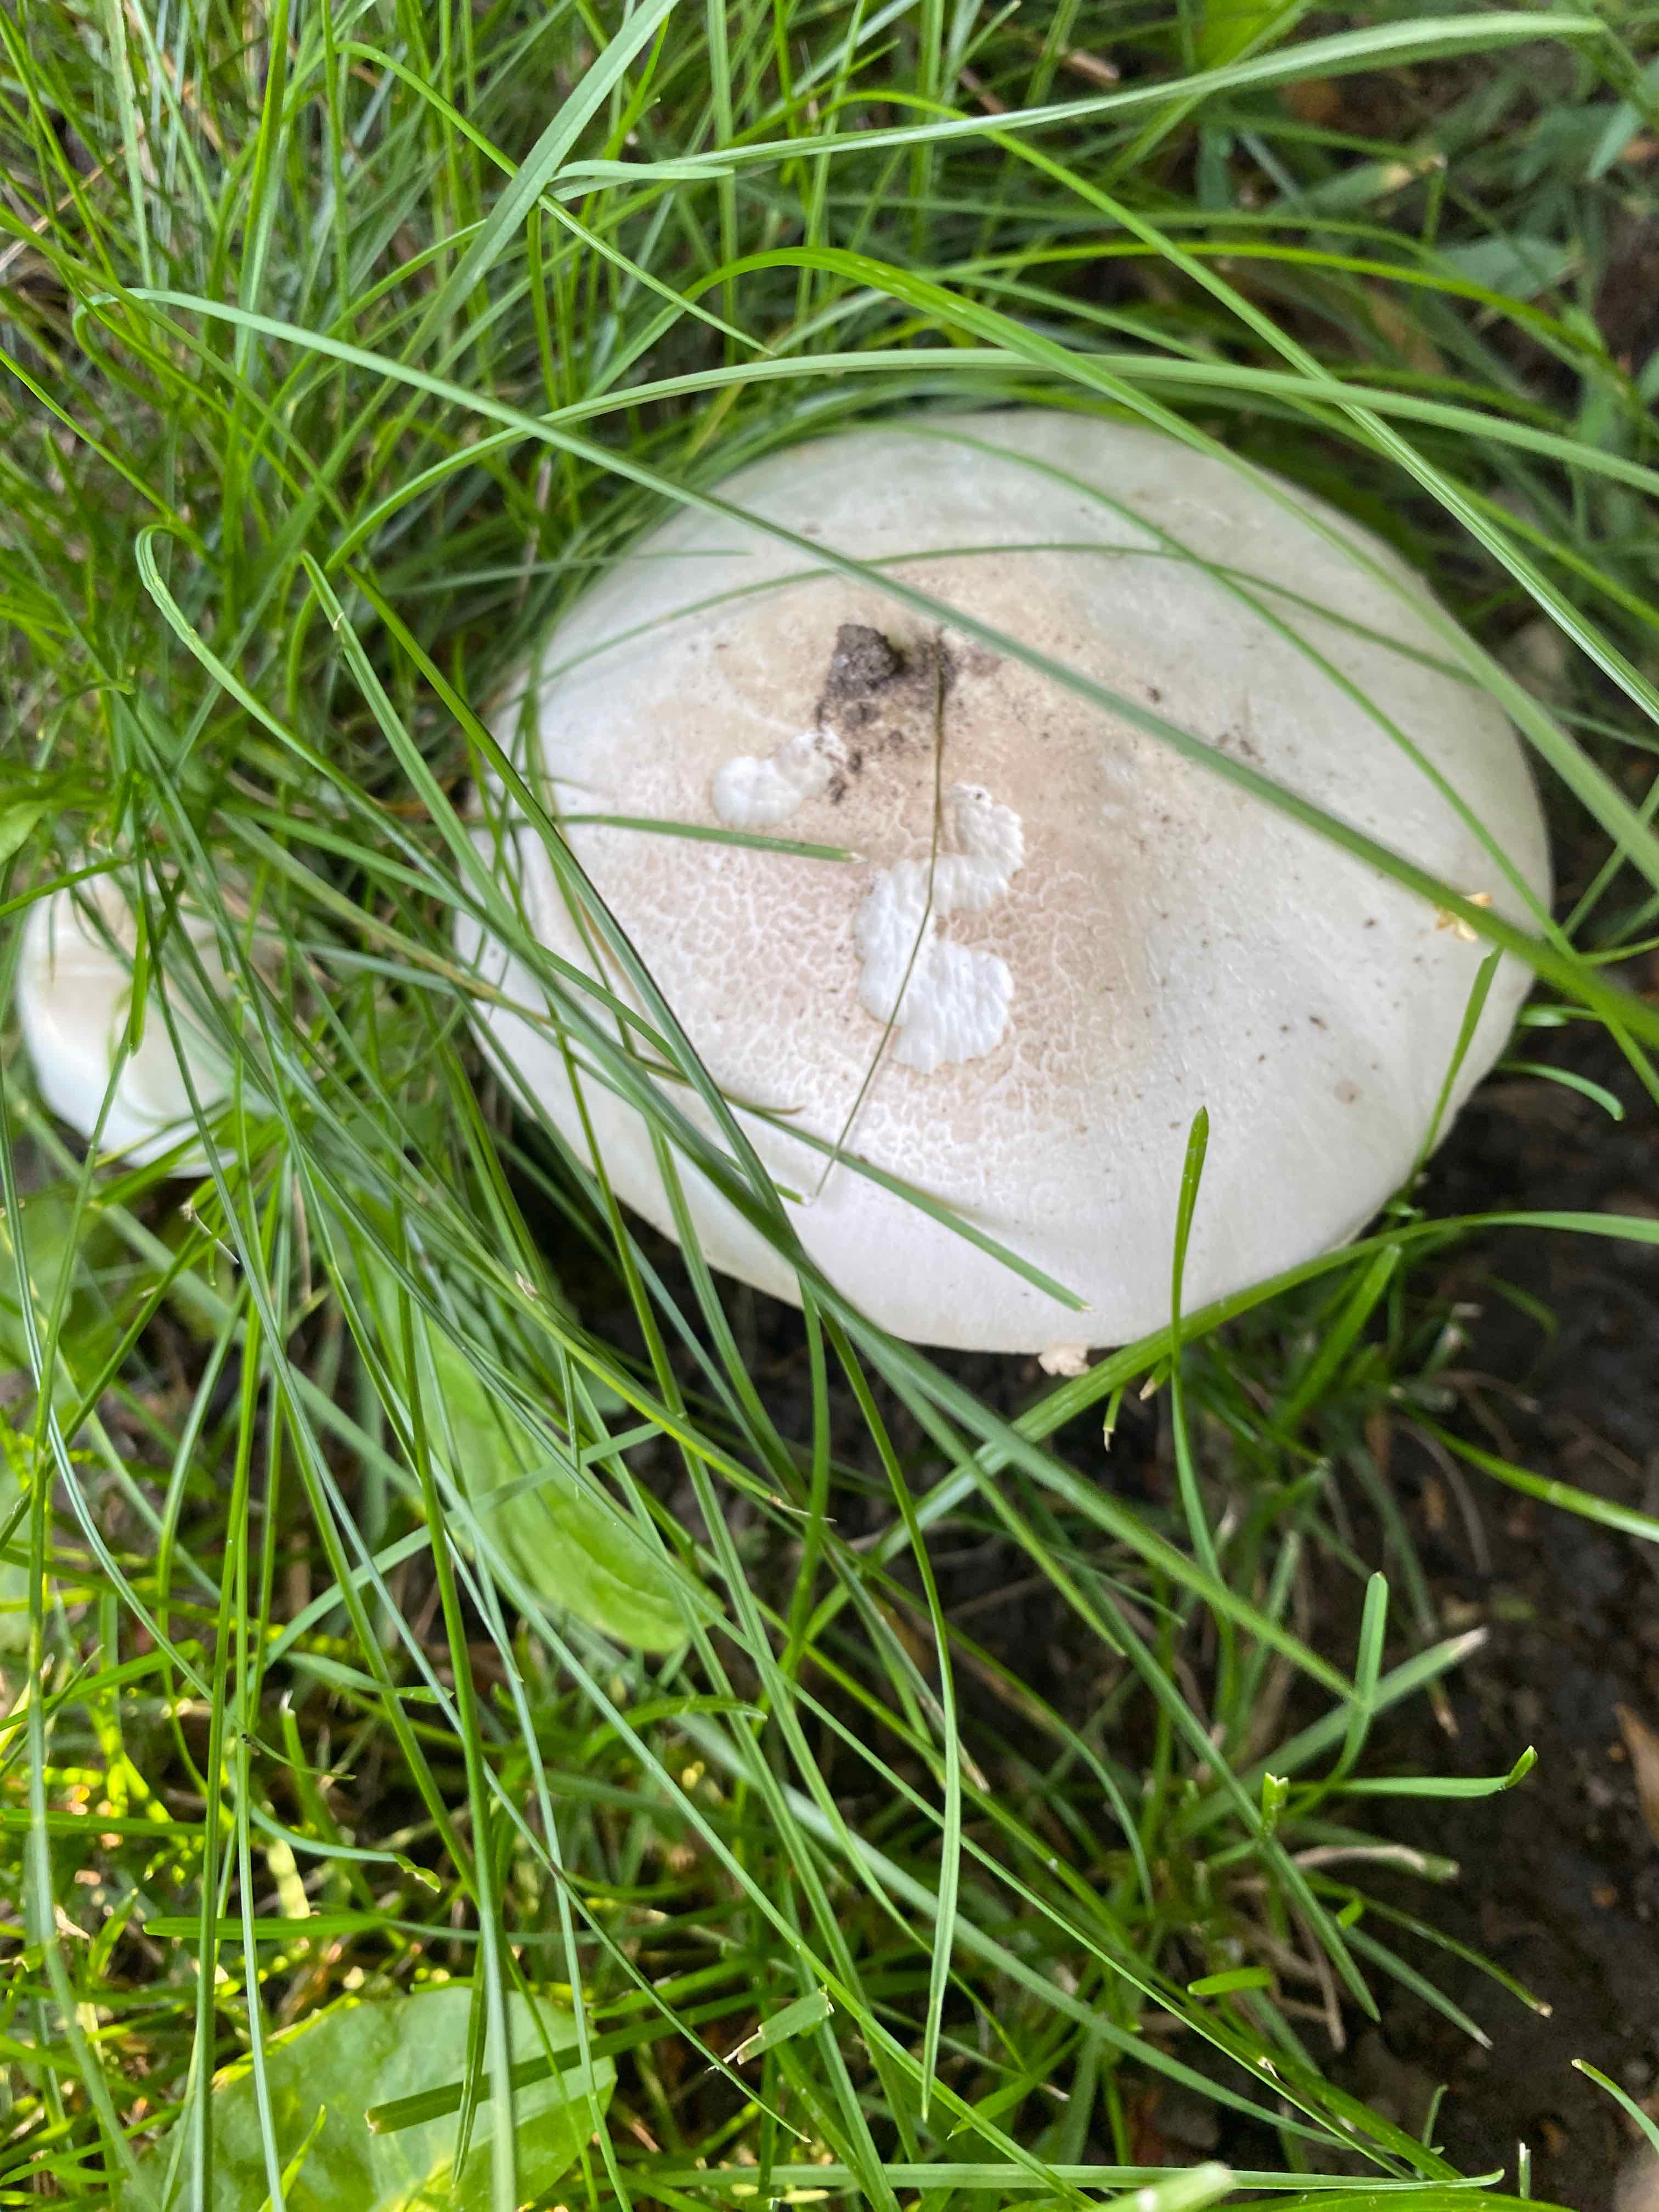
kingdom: Fungi
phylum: Basidiomycota
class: Agaricomycetes
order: Agaricales
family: Agaricaceae
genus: Agaricus
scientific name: Agaricus xanthodermus
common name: karbol-champignon
